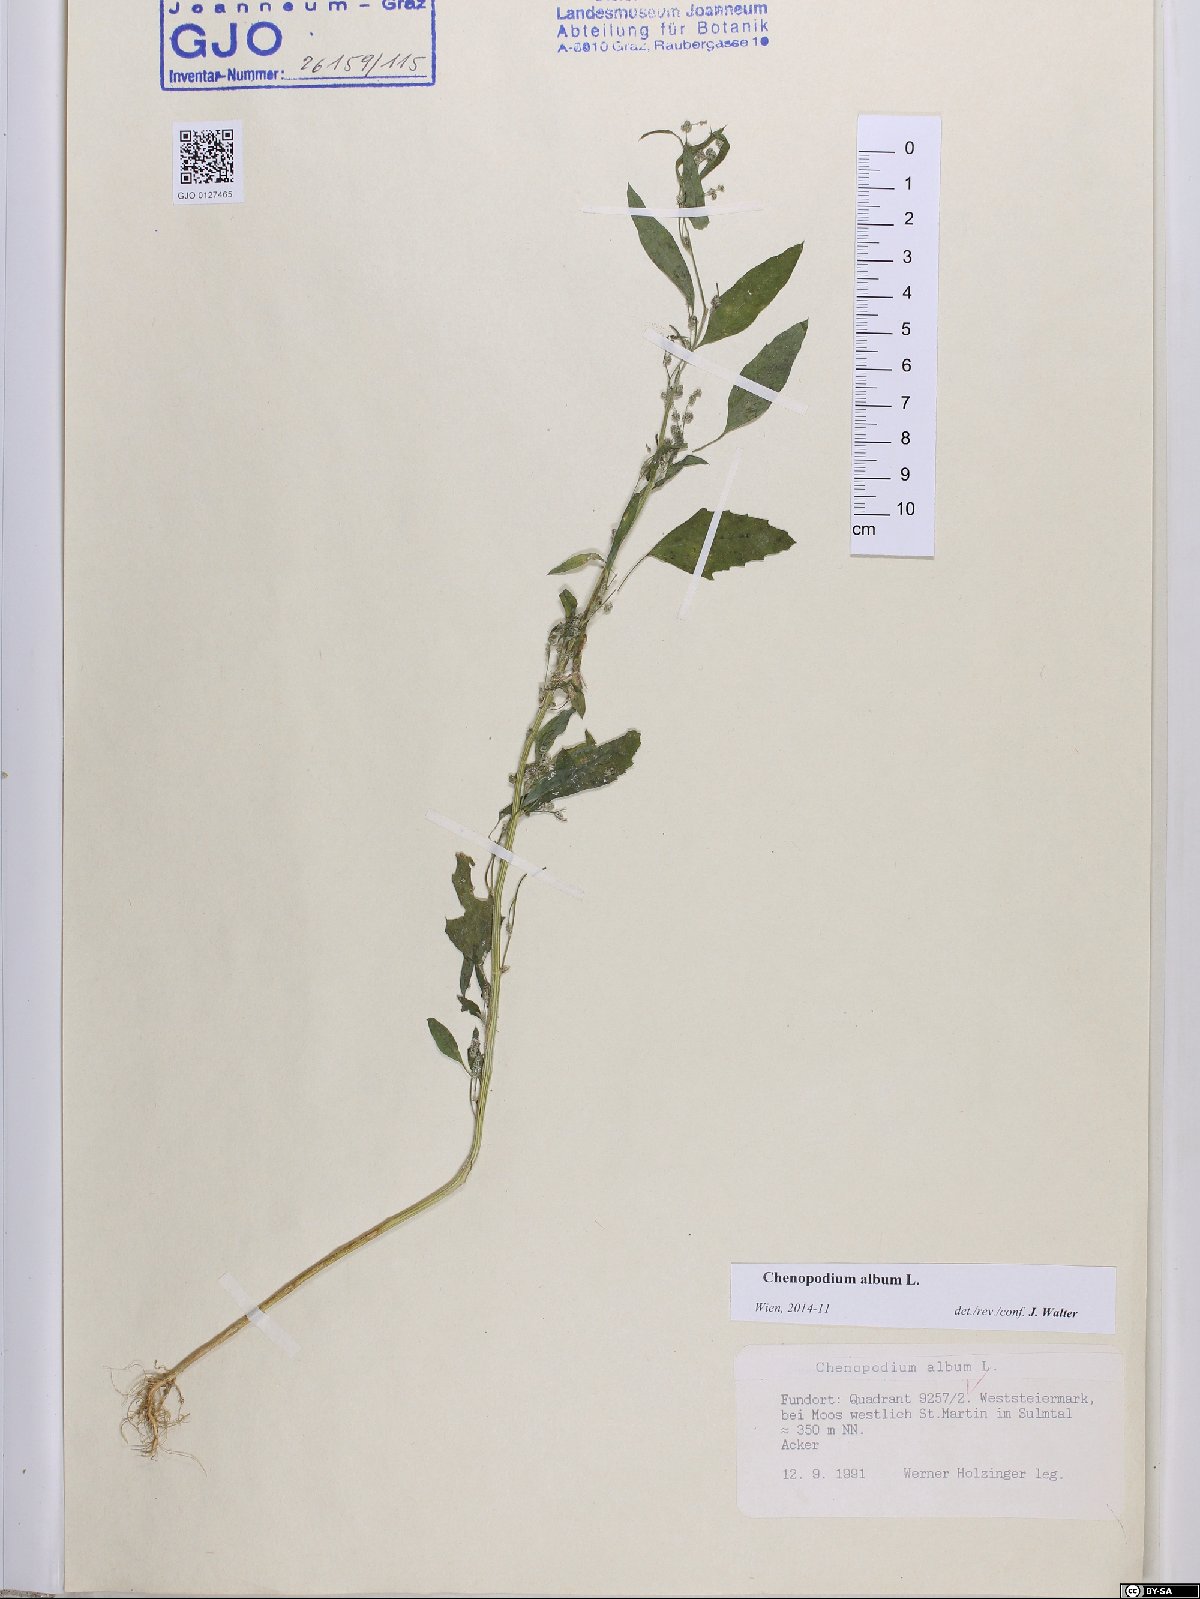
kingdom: Plantae
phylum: Tracheophyta
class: Magnoliopsida
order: Caryophyllales
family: Amaranthaceae
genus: Chenopodium
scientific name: Chenopodium album
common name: Fat-hen
